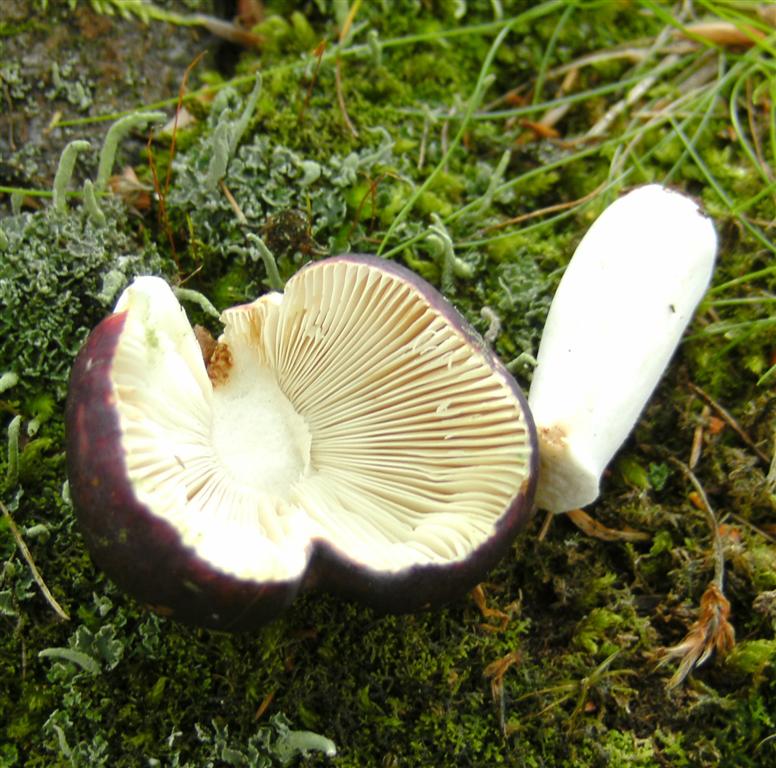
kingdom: Fungi
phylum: Basidiomycota
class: Agaricomycetes
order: Russulales
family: Russulaceae
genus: Russula
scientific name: Russula
